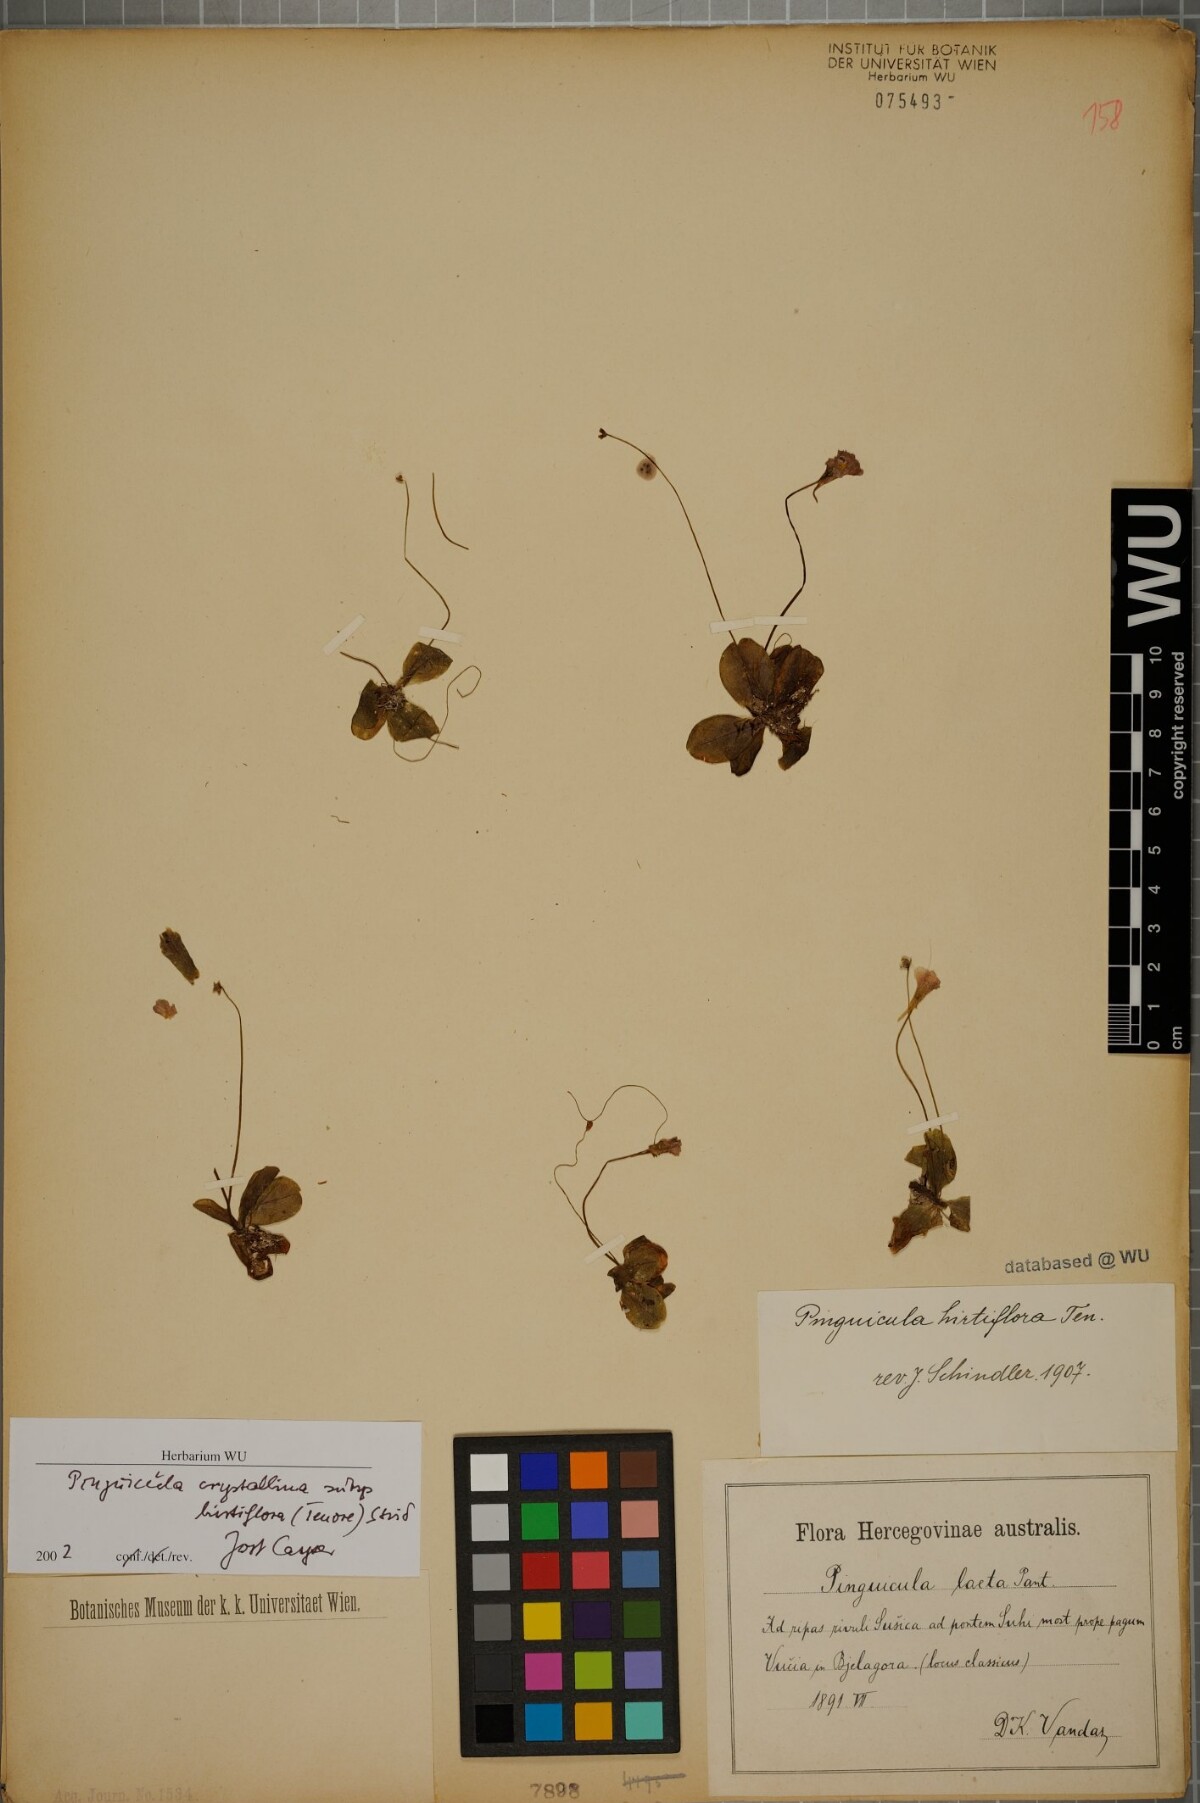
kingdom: Plantae
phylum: Tracheophyta
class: Magnoliopsida
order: Lamiales
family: Lentibulariaceae
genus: Pinguicula
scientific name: Pinguicula crystallina
